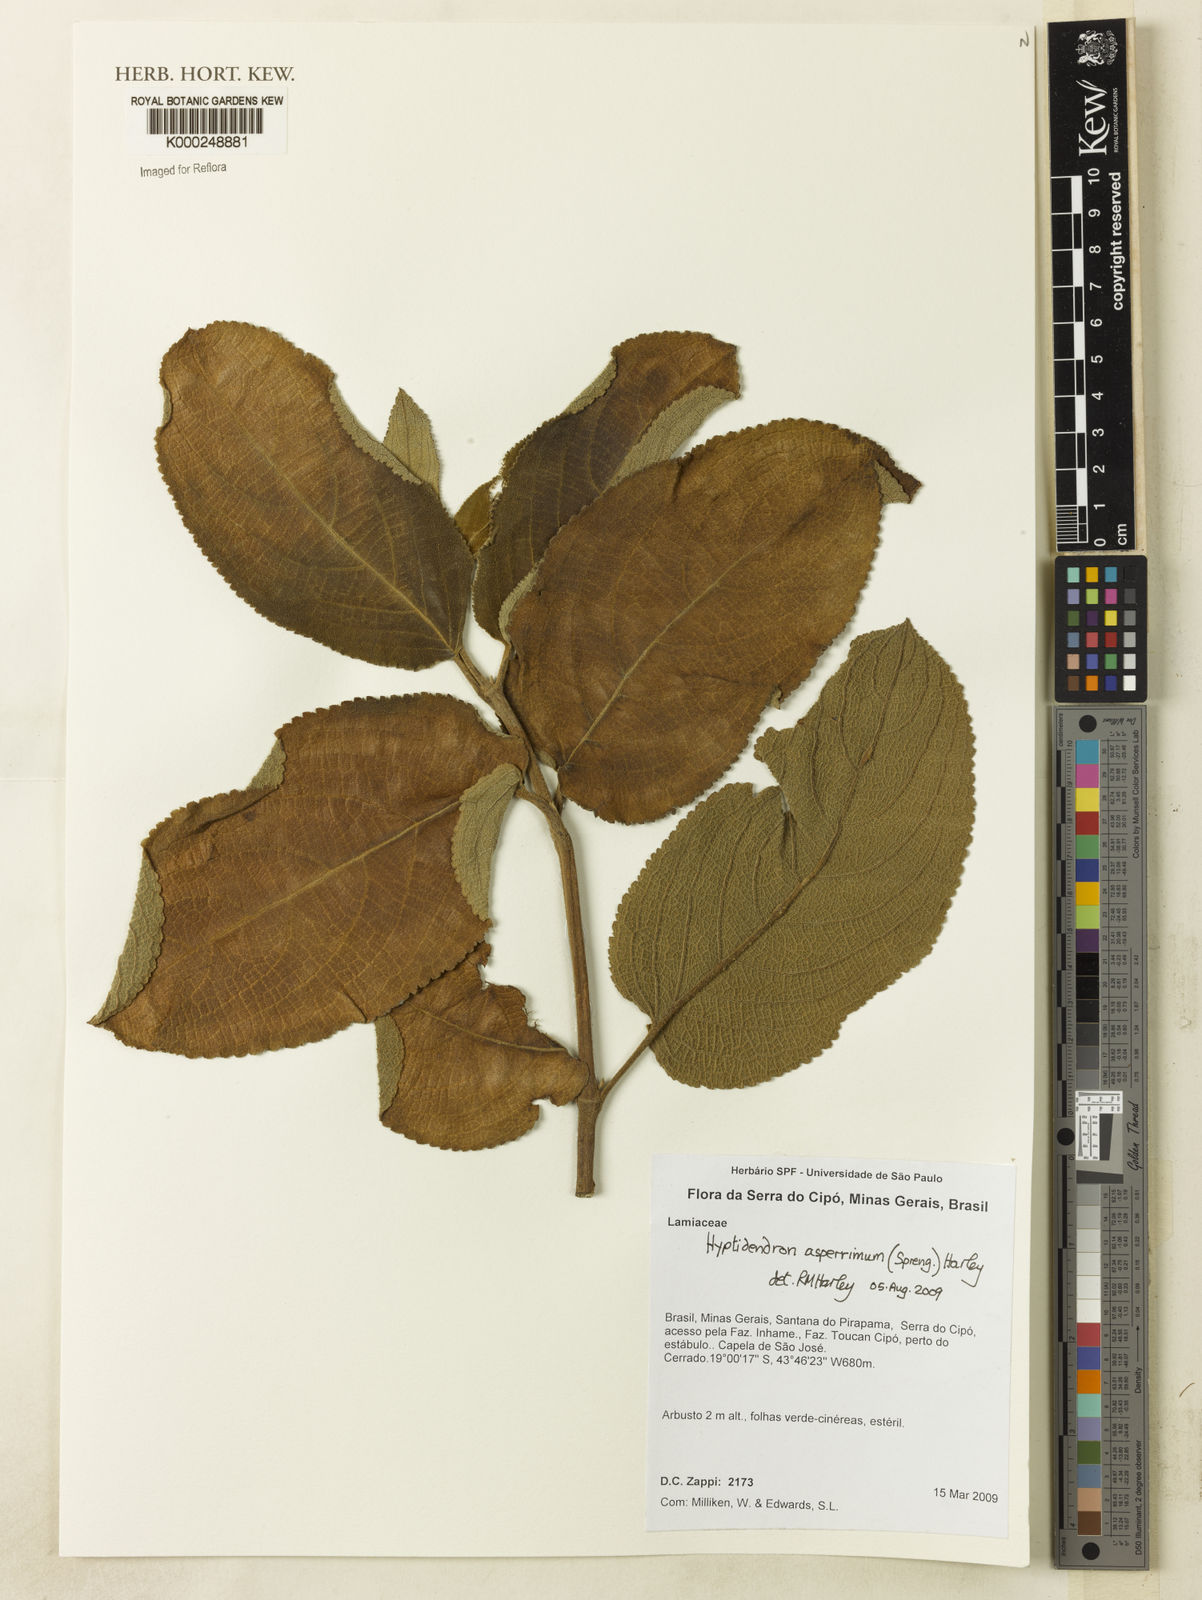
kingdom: Plantae
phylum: Tracheophyta
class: Magnoliopsida
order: Lamiales
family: Lamiaceae
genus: Hyptidendron
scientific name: Hyptidendron asperrimum
